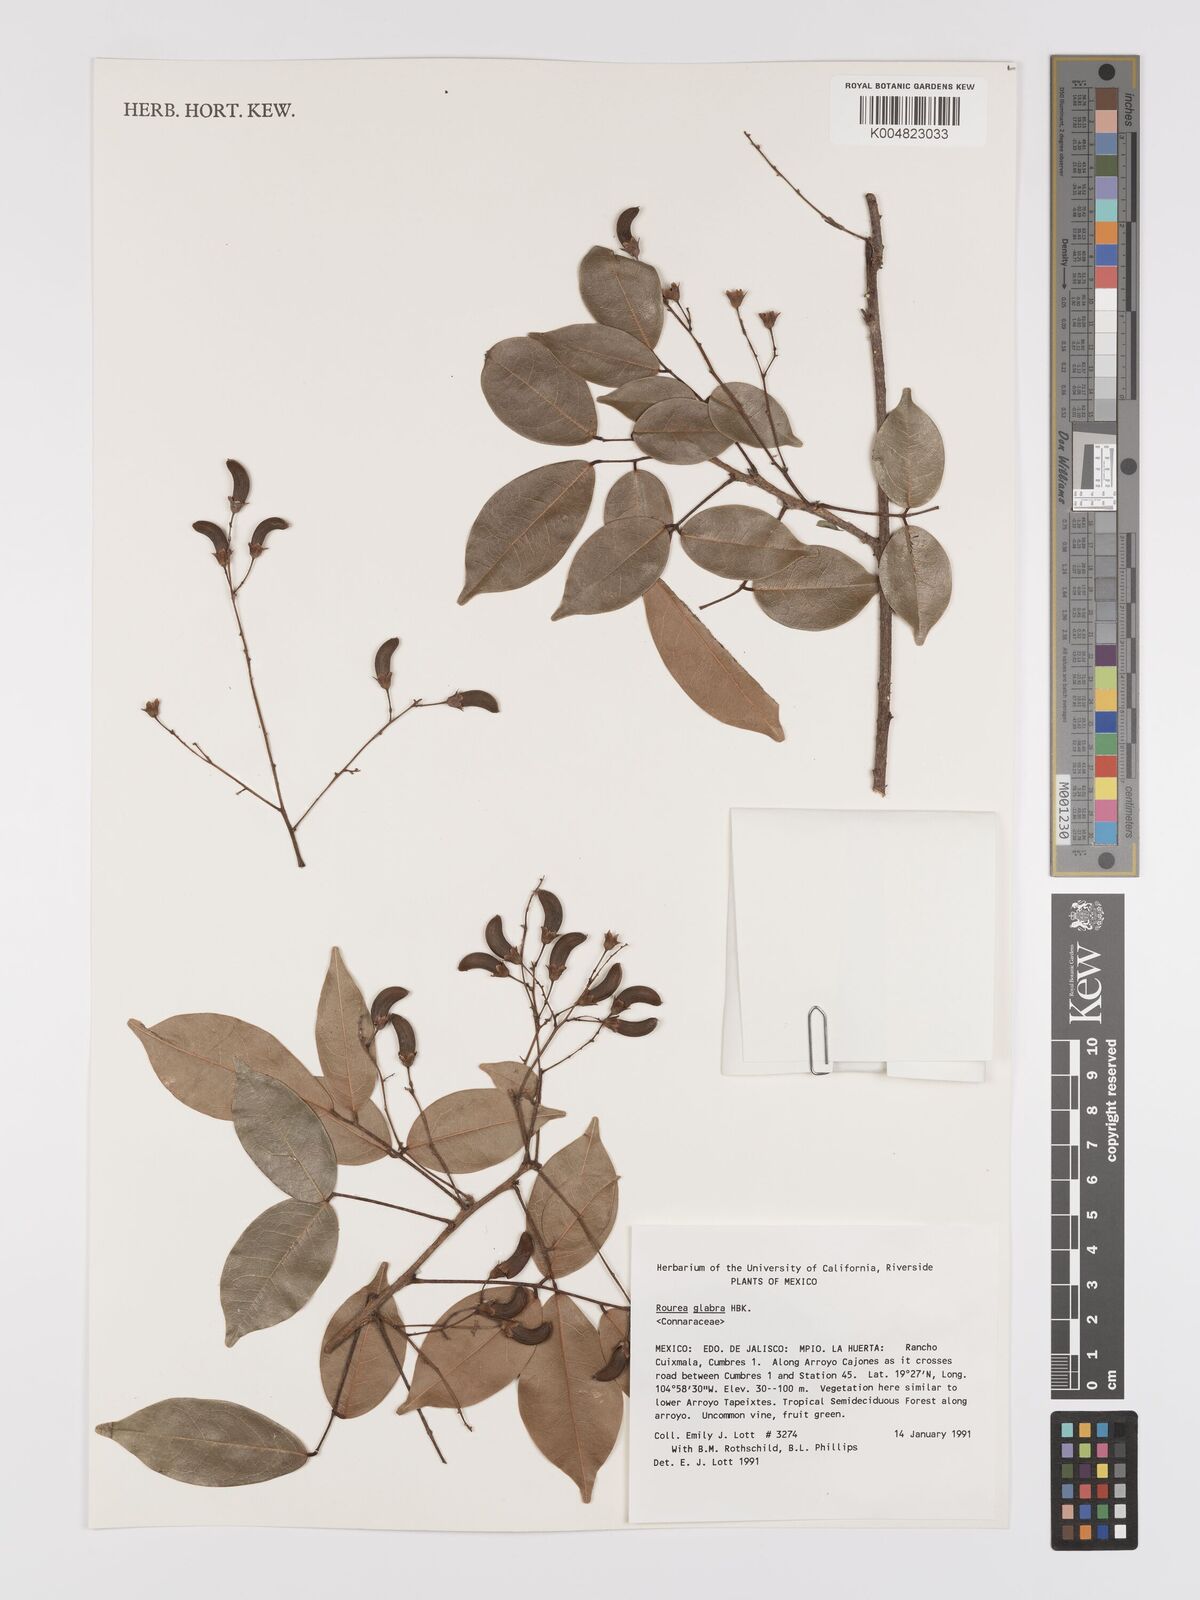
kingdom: Plantae
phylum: Tracheophyta
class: Magnoliopsida
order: Oxalidales
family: Connaraceae
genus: Rourea
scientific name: Rourea glabra
